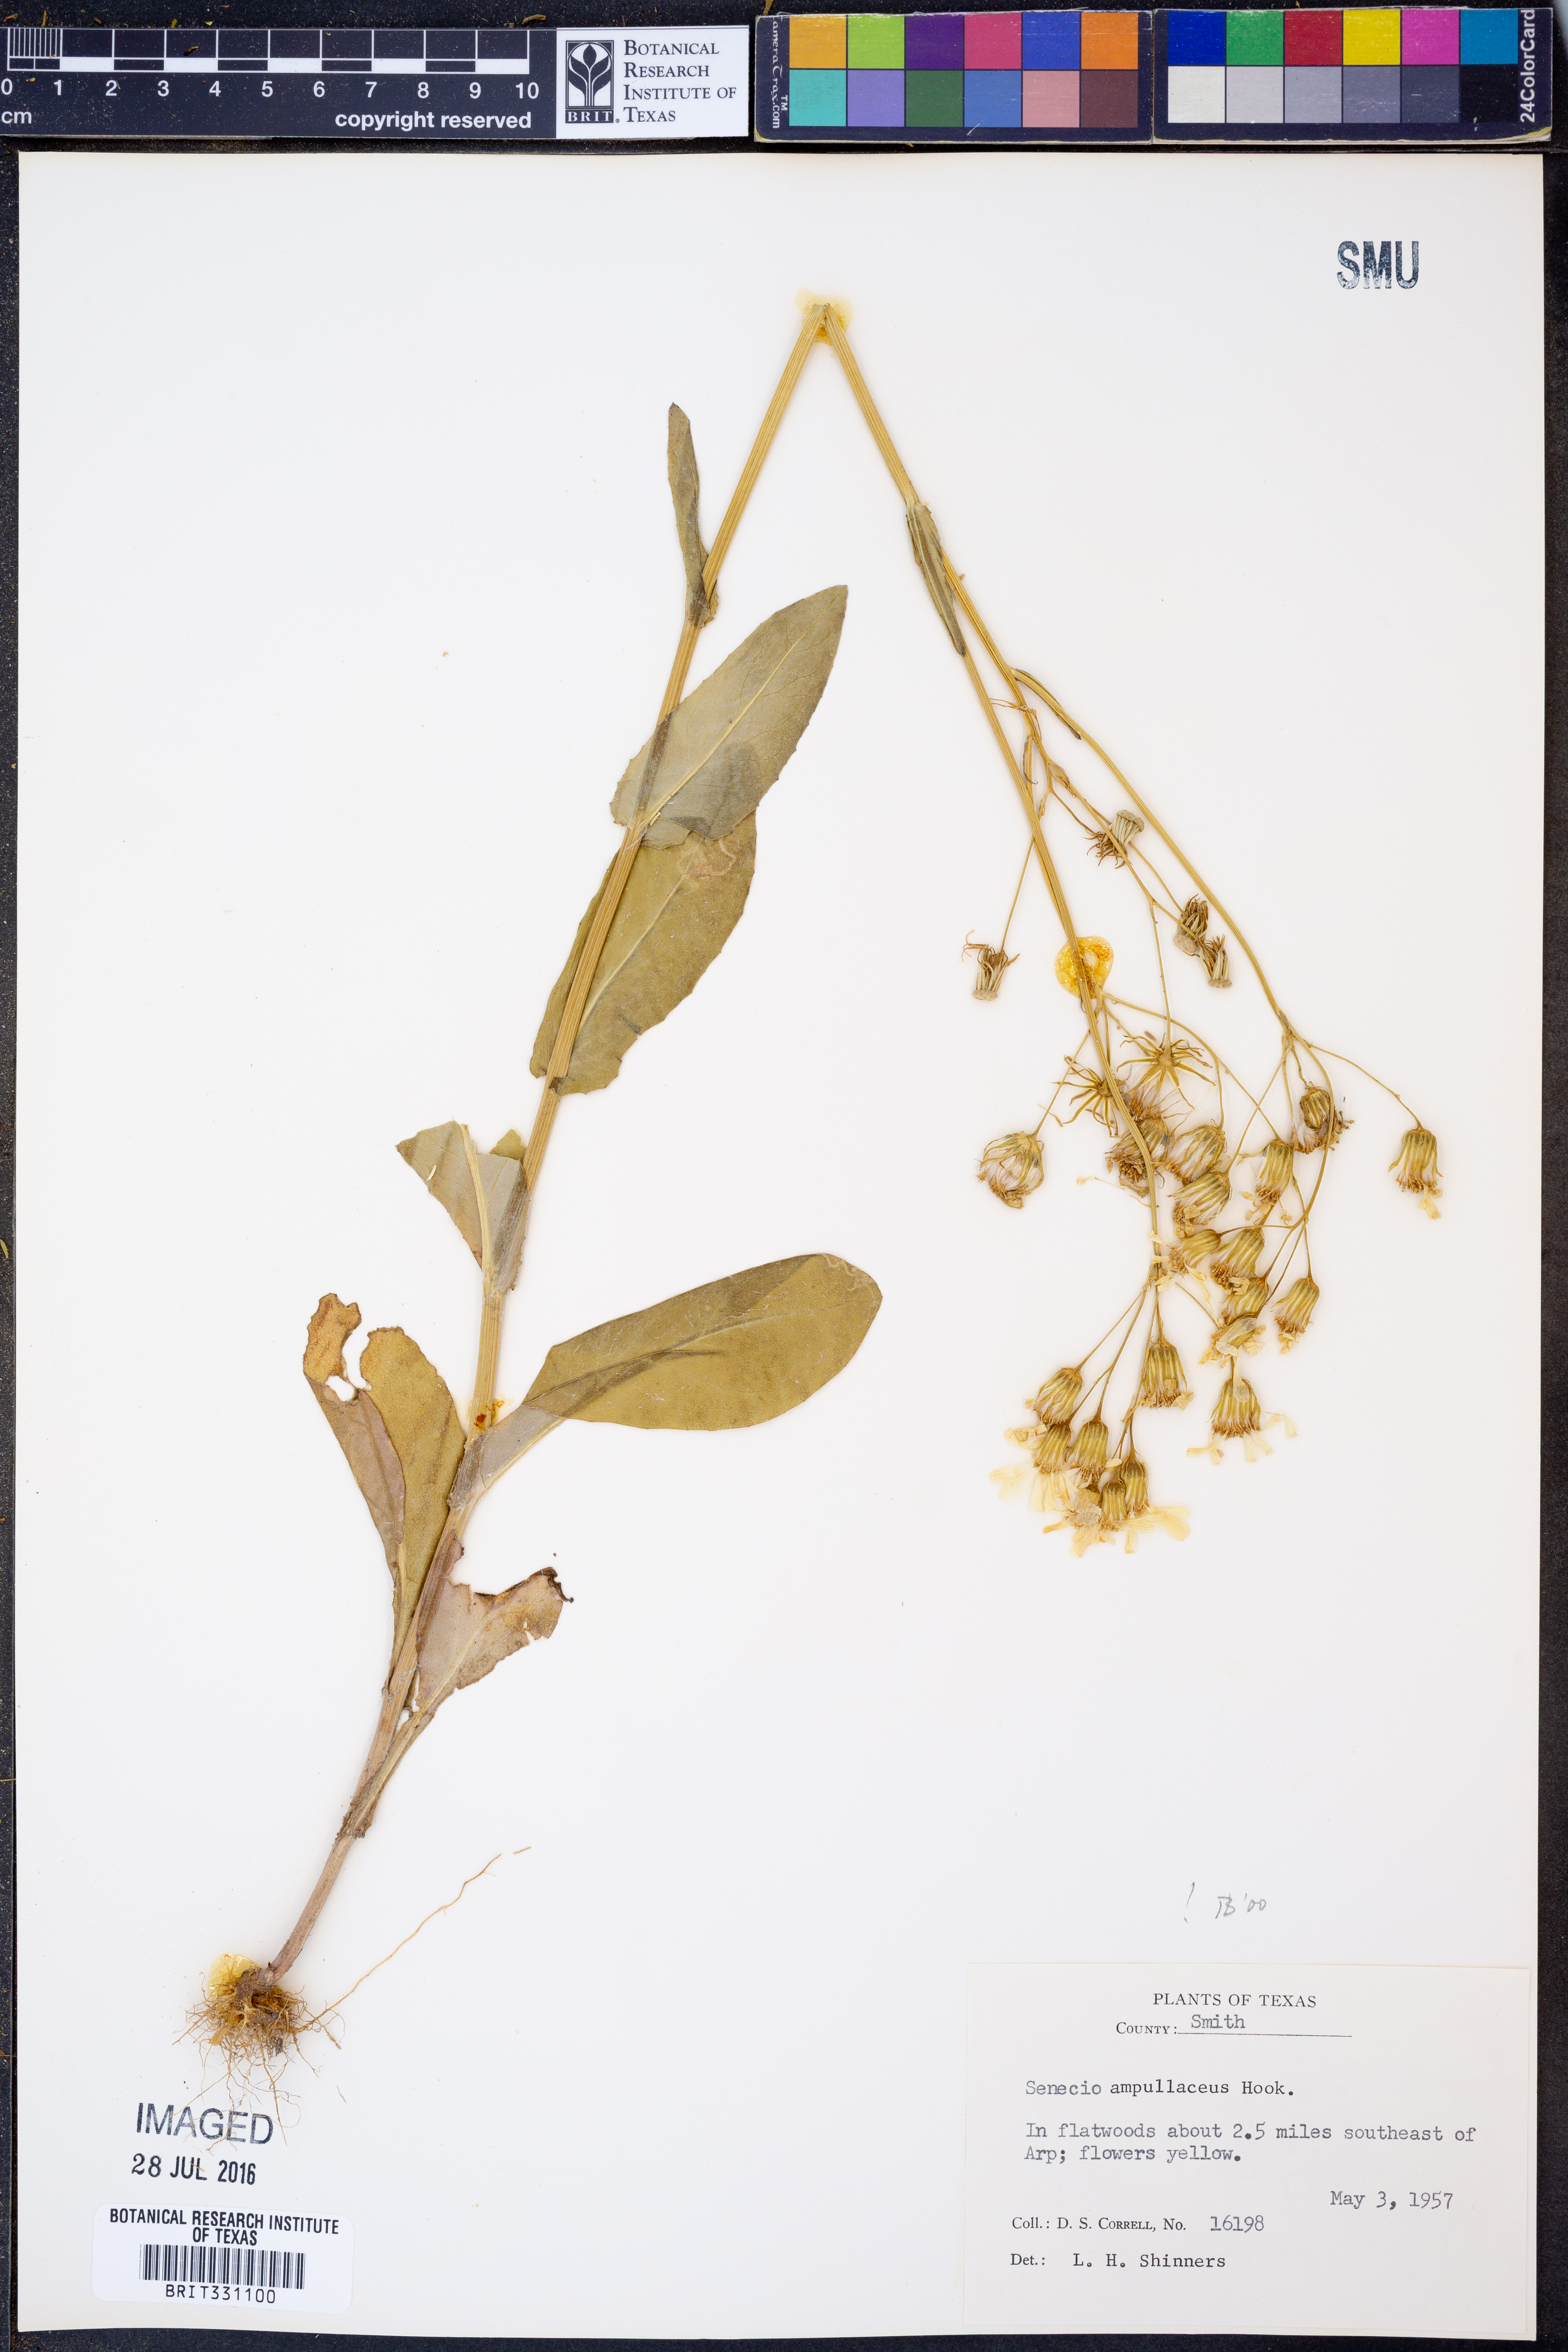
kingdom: Plantae
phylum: Tracheophyta
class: Magnoliopsida
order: Asterales
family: Asteraceae
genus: Senecio
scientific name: Senecio ampullaceus
